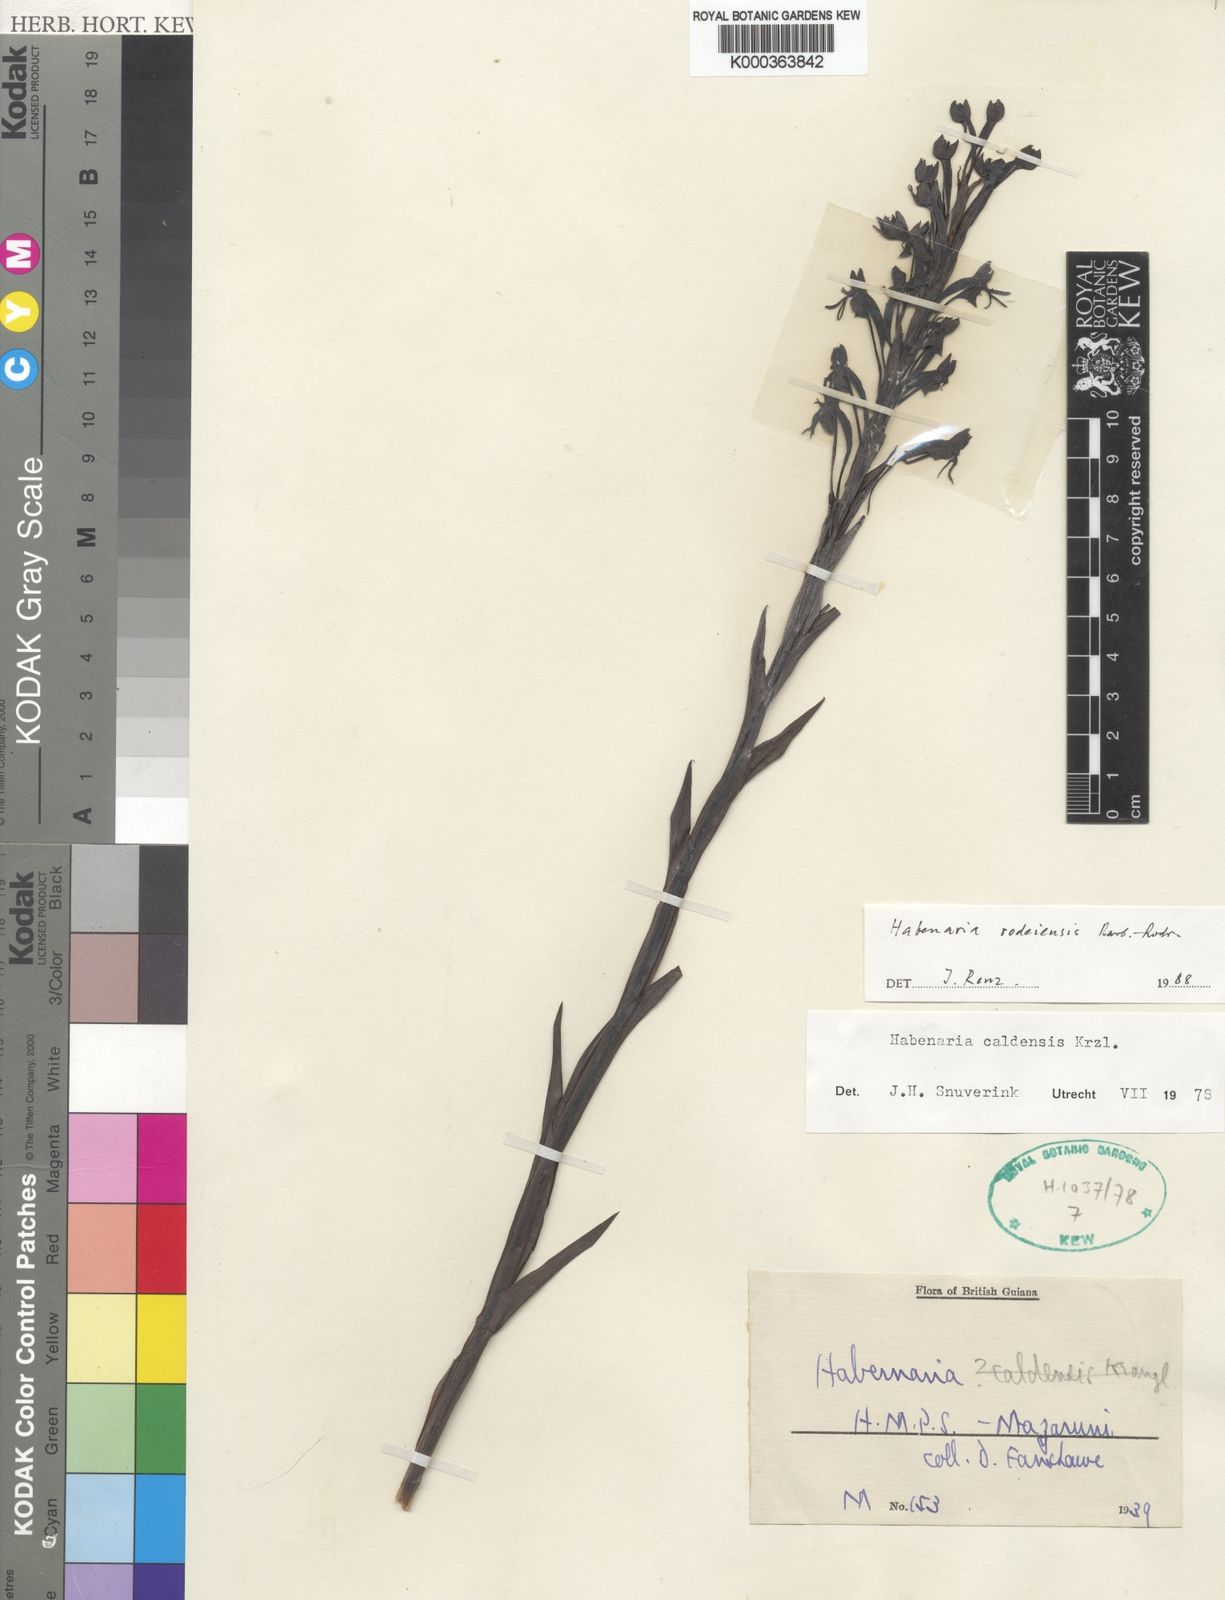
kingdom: Plantae
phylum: Tracheophyta
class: Liliopsida
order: Asparagales
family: Orchidaceae
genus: Habenaria
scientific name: Habenaria rodeiensis
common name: Bog orchid
